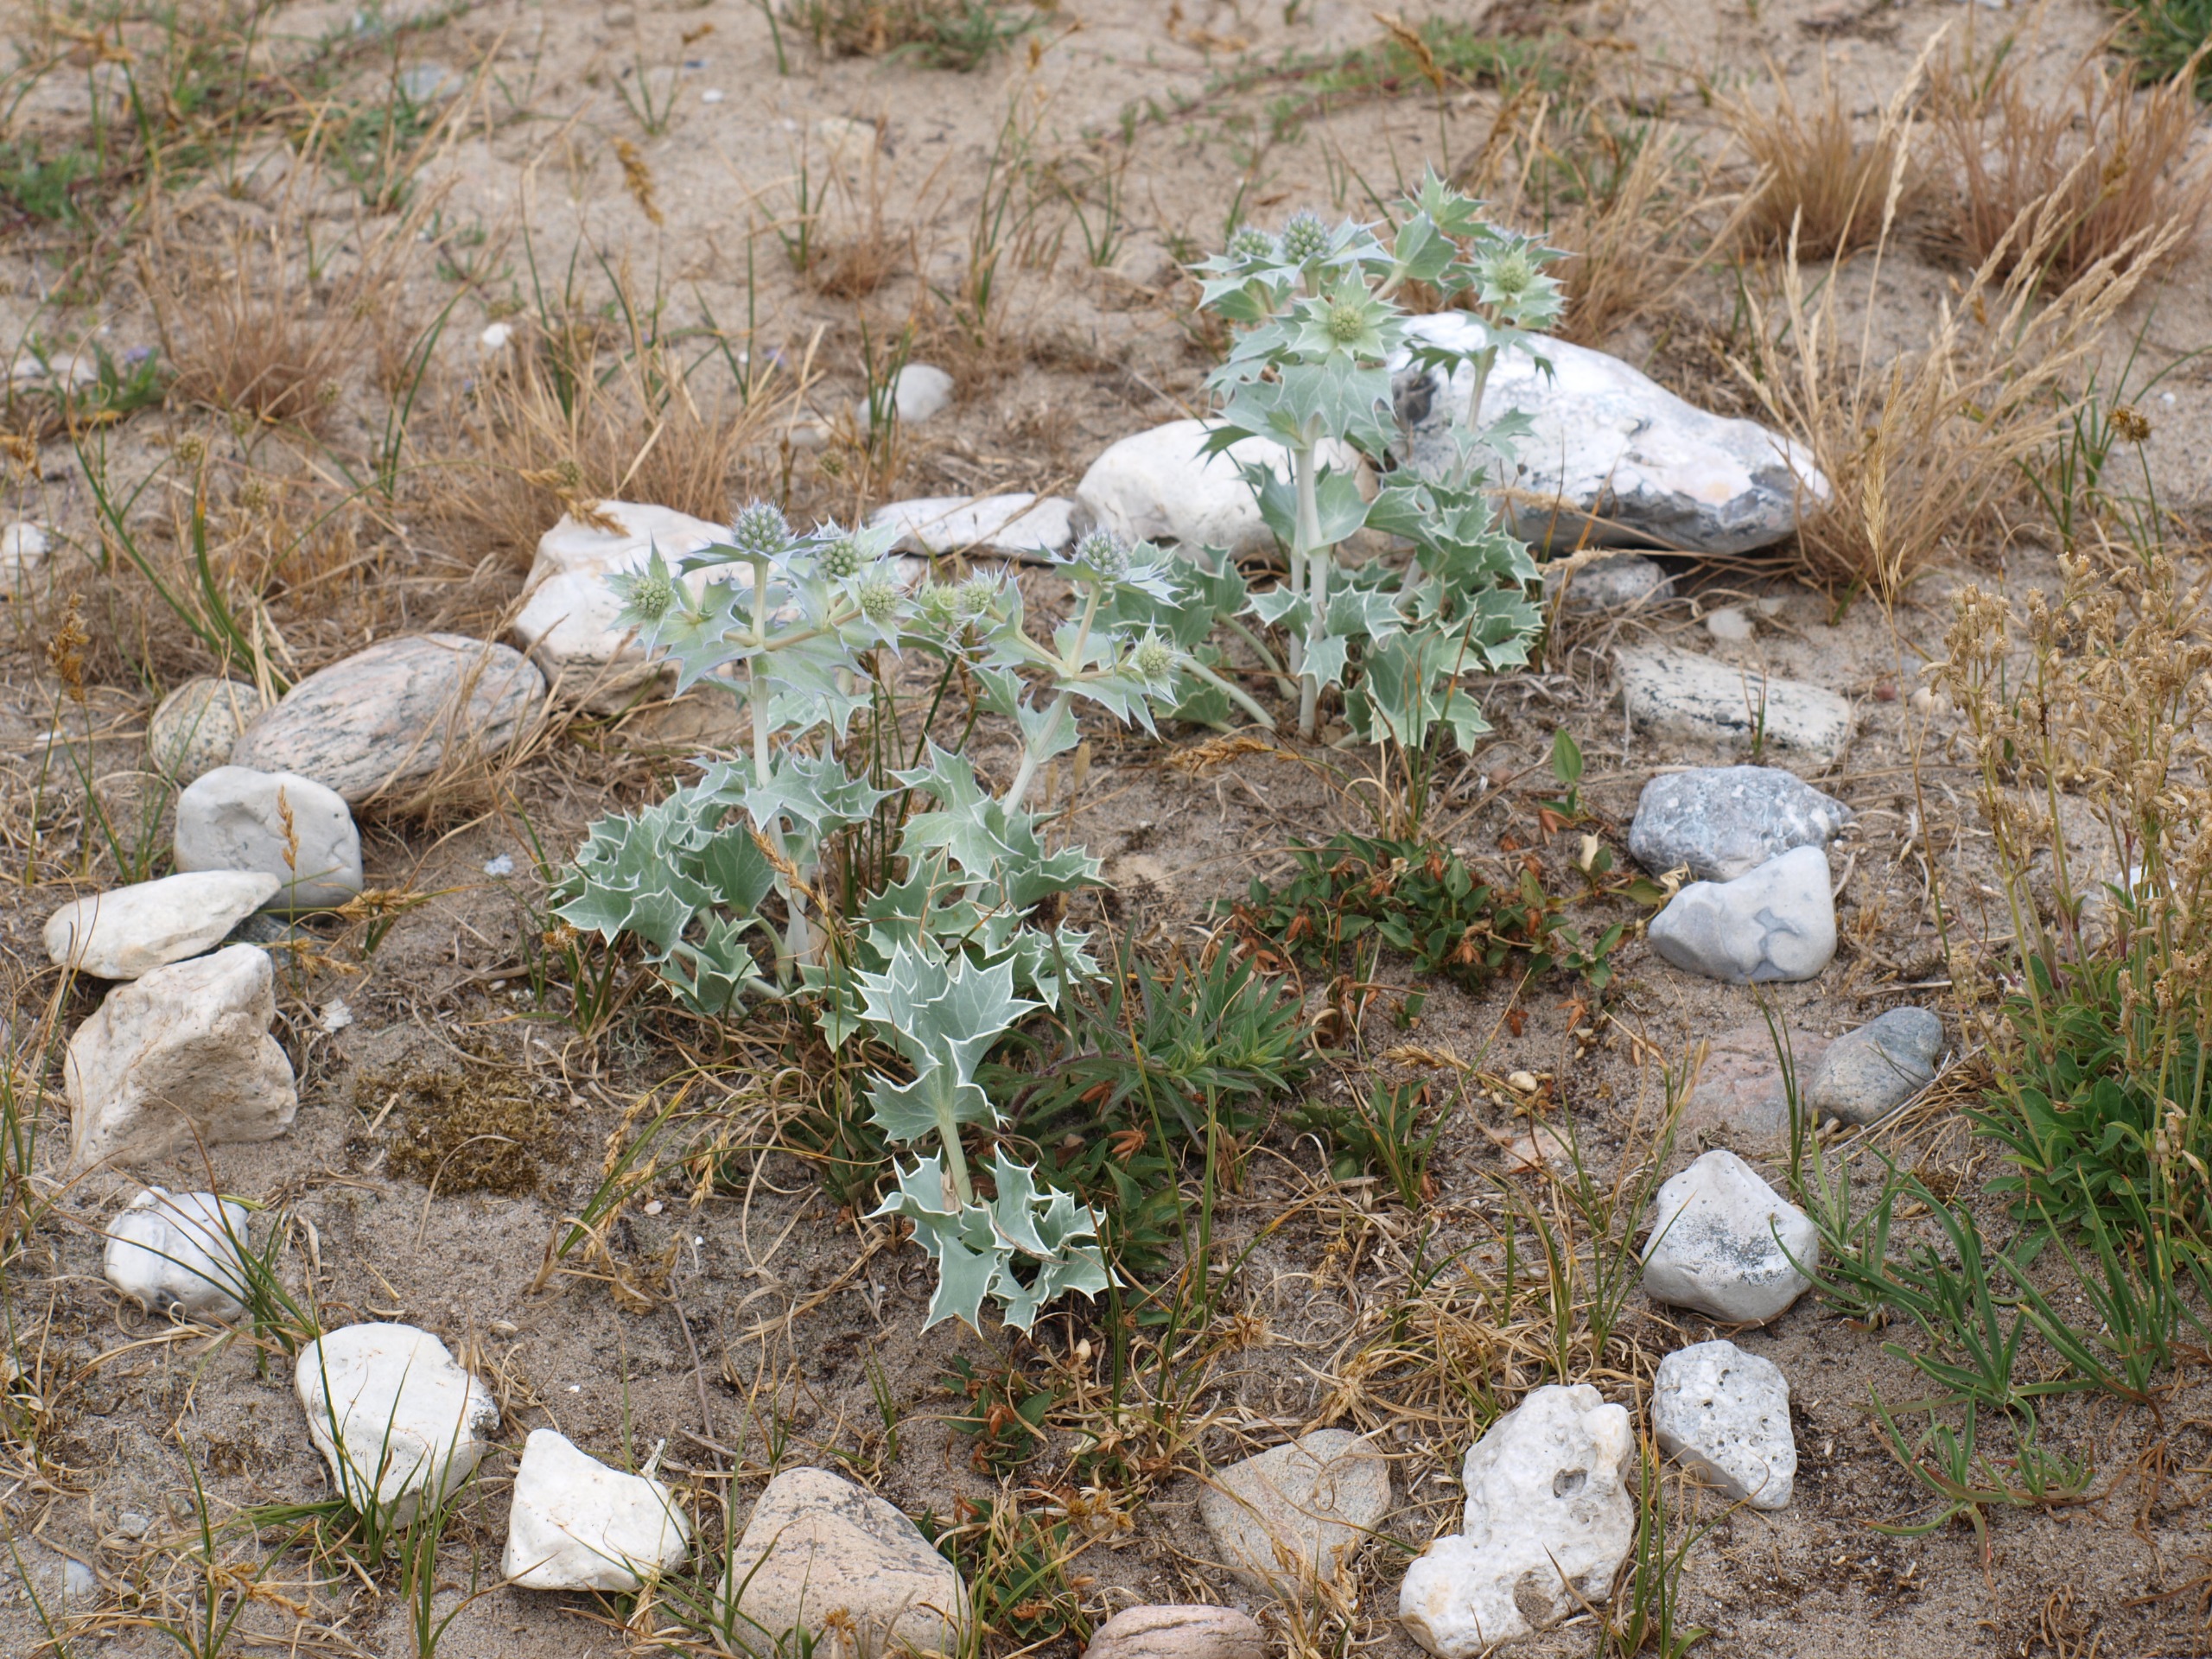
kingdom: Plantae
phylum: Tracheophyta
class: Magnoliopsida
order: Apiales
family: Apiaceae
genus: Eryngium
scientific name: Eryngium maritimum
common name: Strand-mandstro
